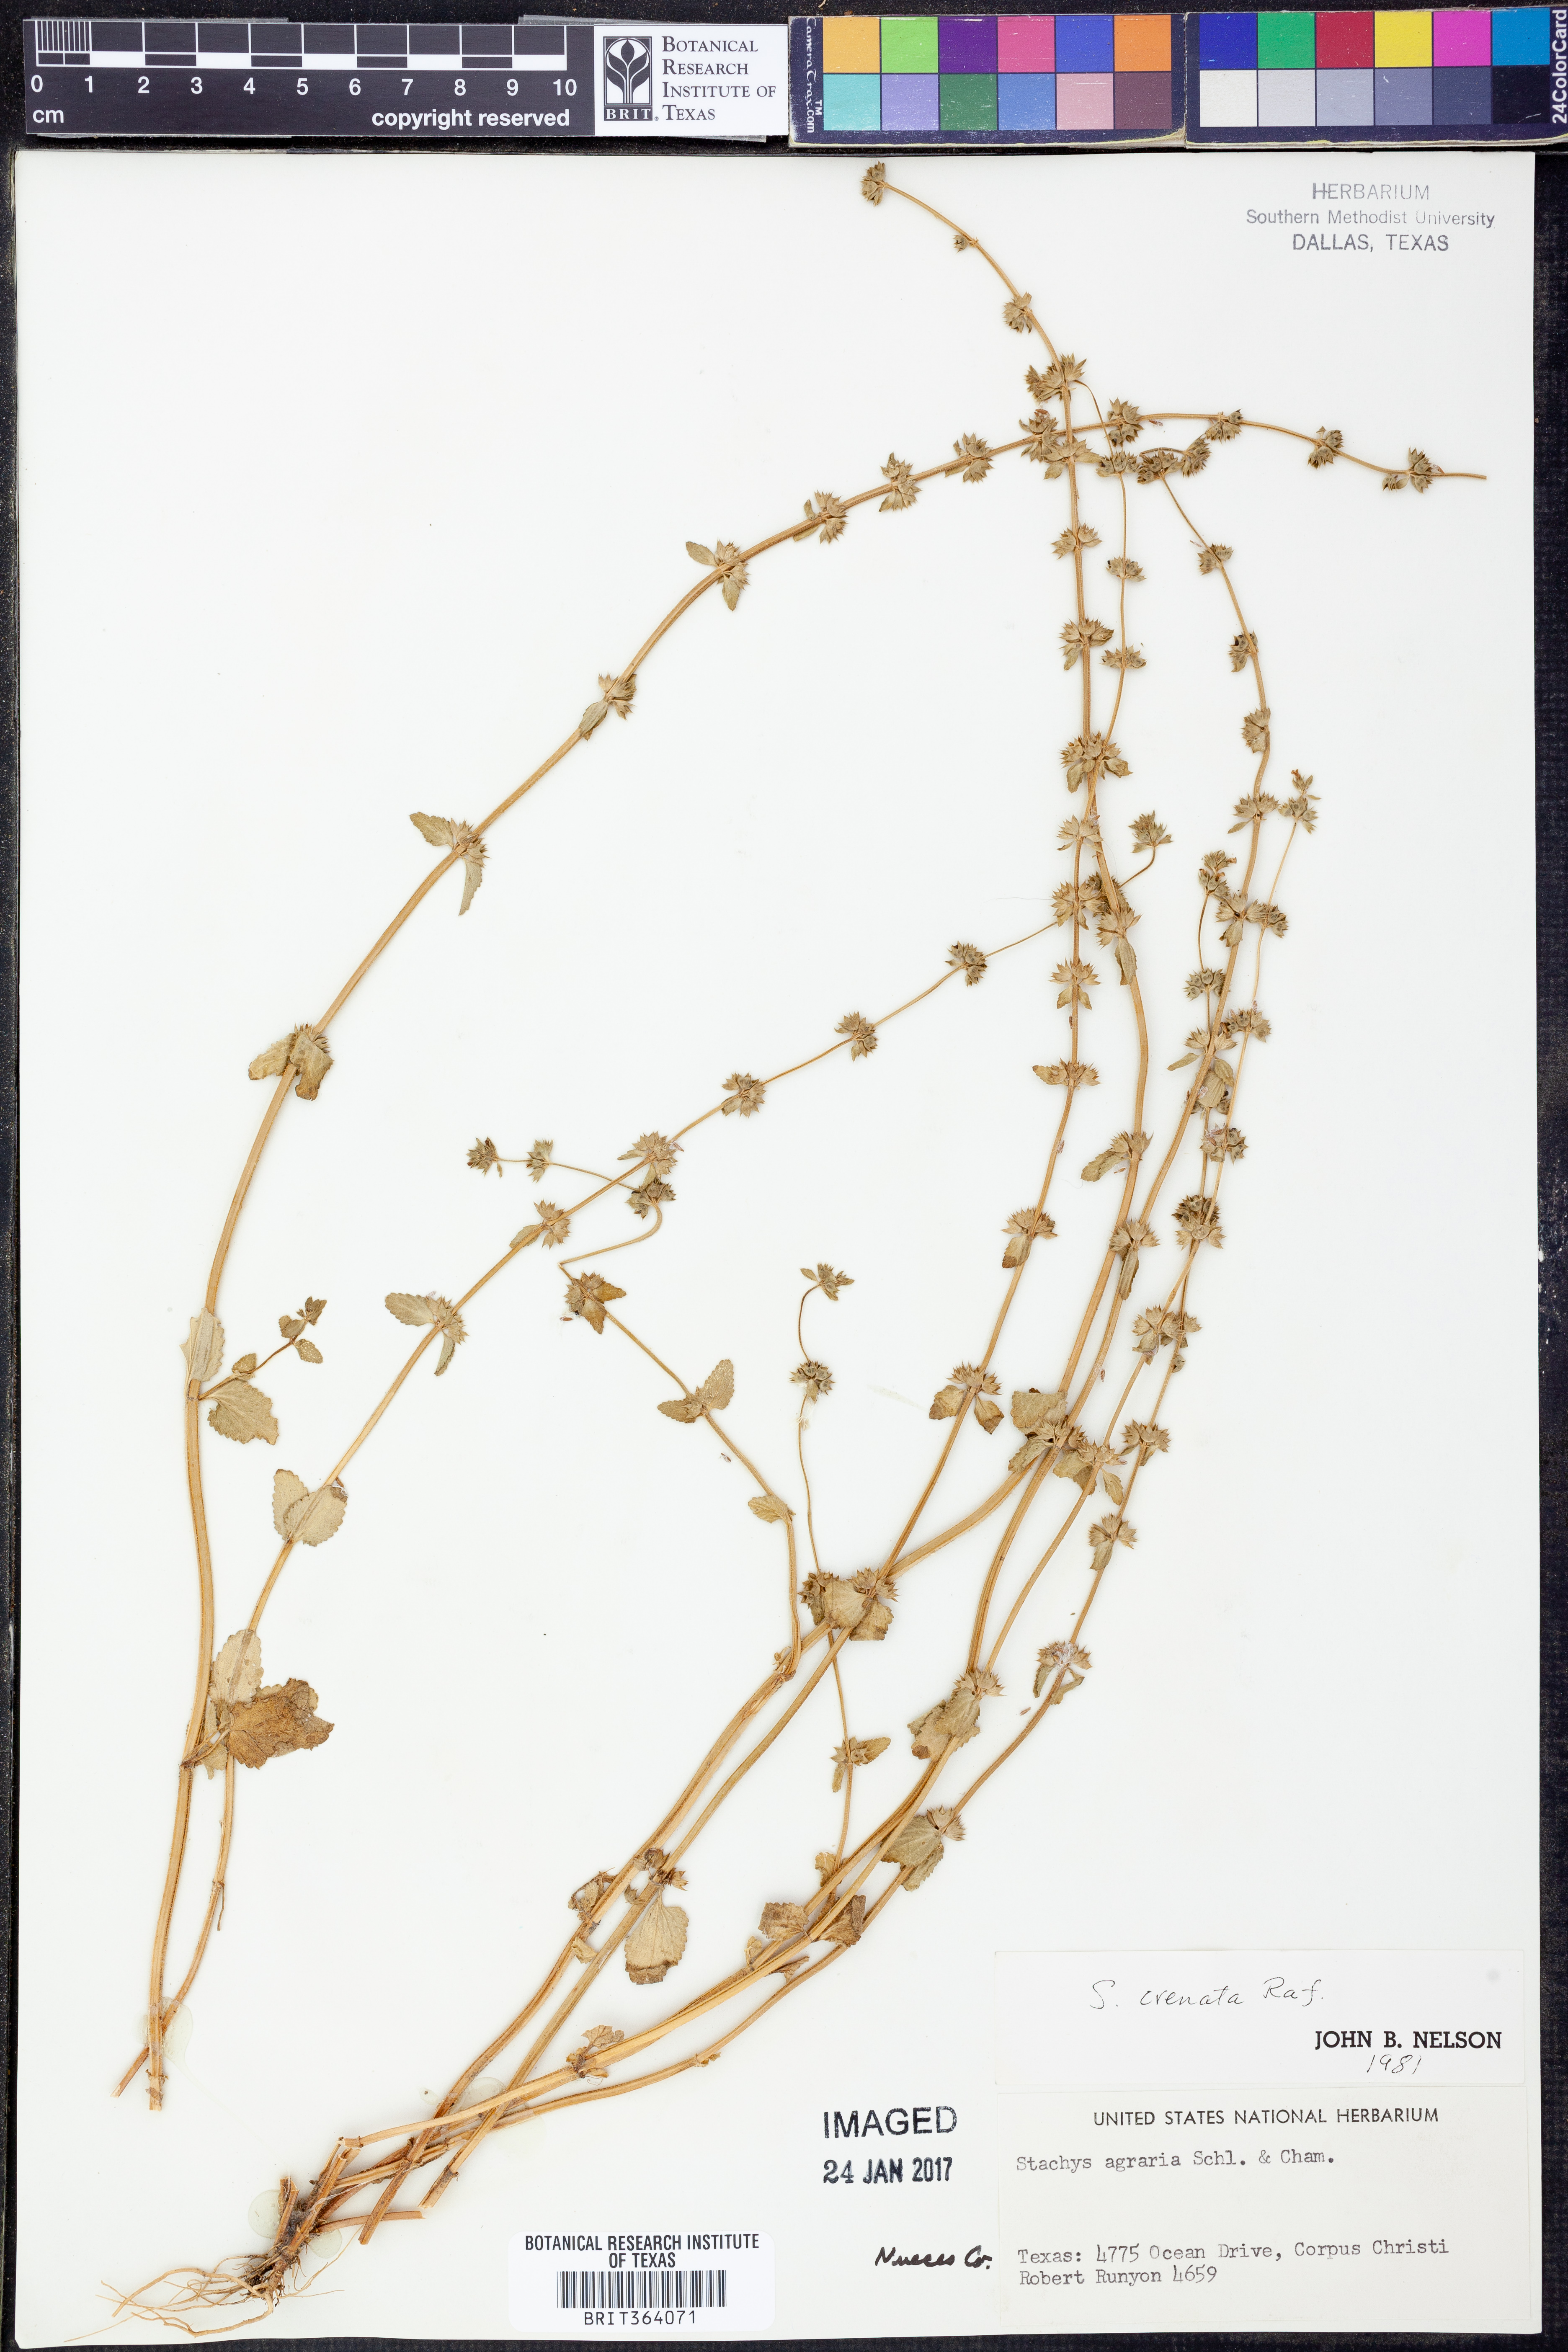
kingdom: Plantae
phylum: Tracheophyta
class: Magnoliopsida
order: Lamiales
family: Lamiaceae
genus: Stachys
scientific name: Stachys agraria
